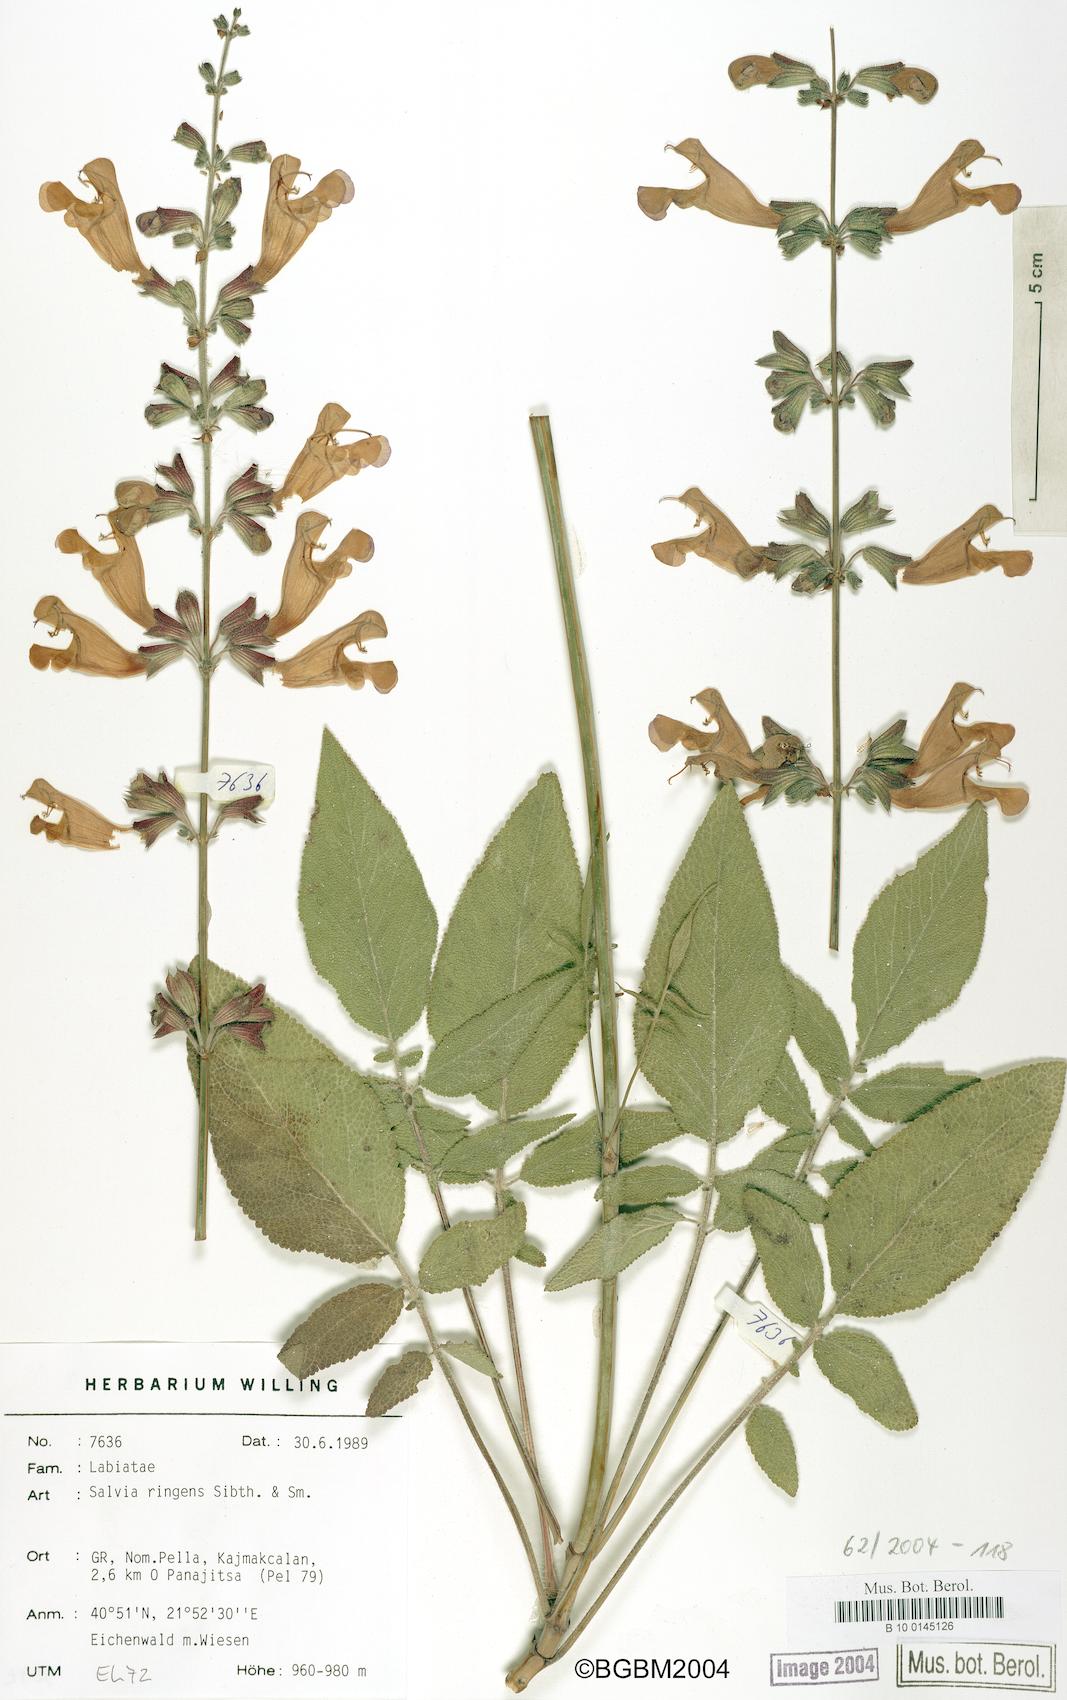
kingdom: Plantae
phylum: Tracheophyta
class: Magnoliopsida
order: Lamiales
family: Lamiaceae
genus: Salvia
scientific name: Salvia ringens
